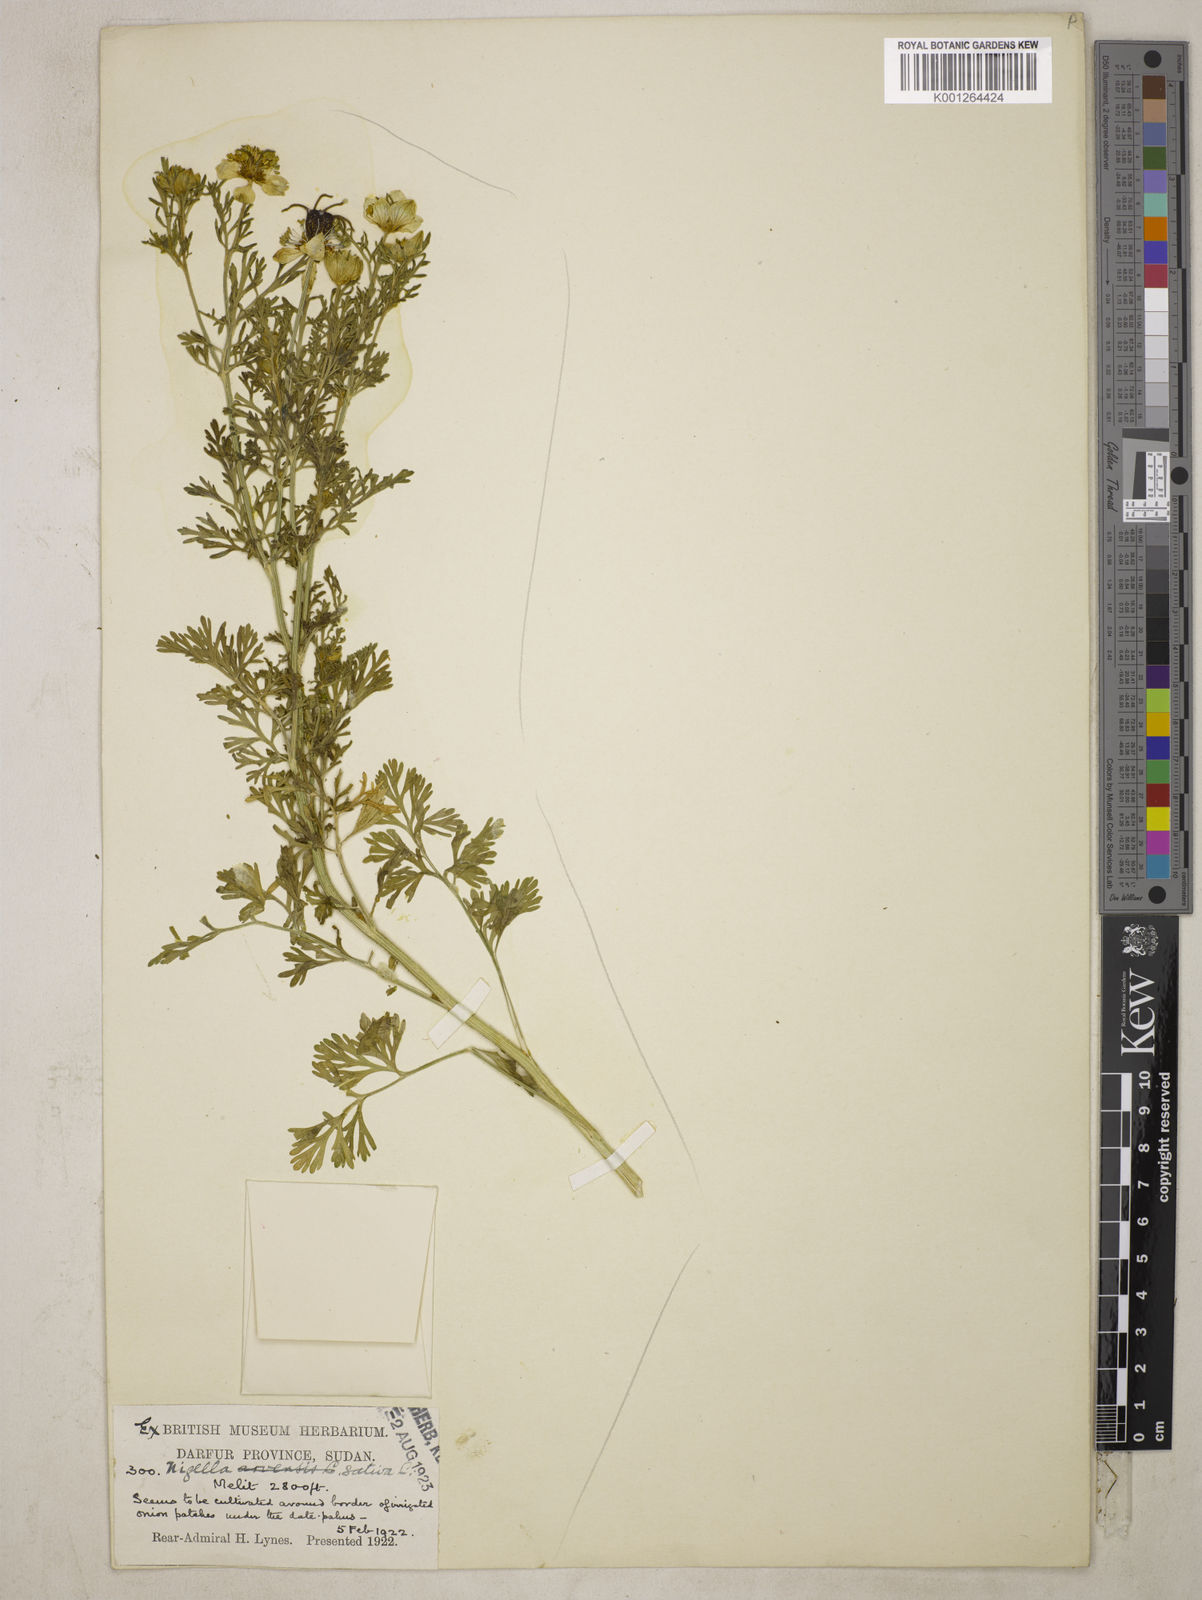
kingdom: Plantae
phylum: Tracheophyta
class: Magnoliopsida
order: Ranunculales
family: Ranunculaceae
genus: Nigella
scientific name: Nigella sativa
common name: Black-cumin
